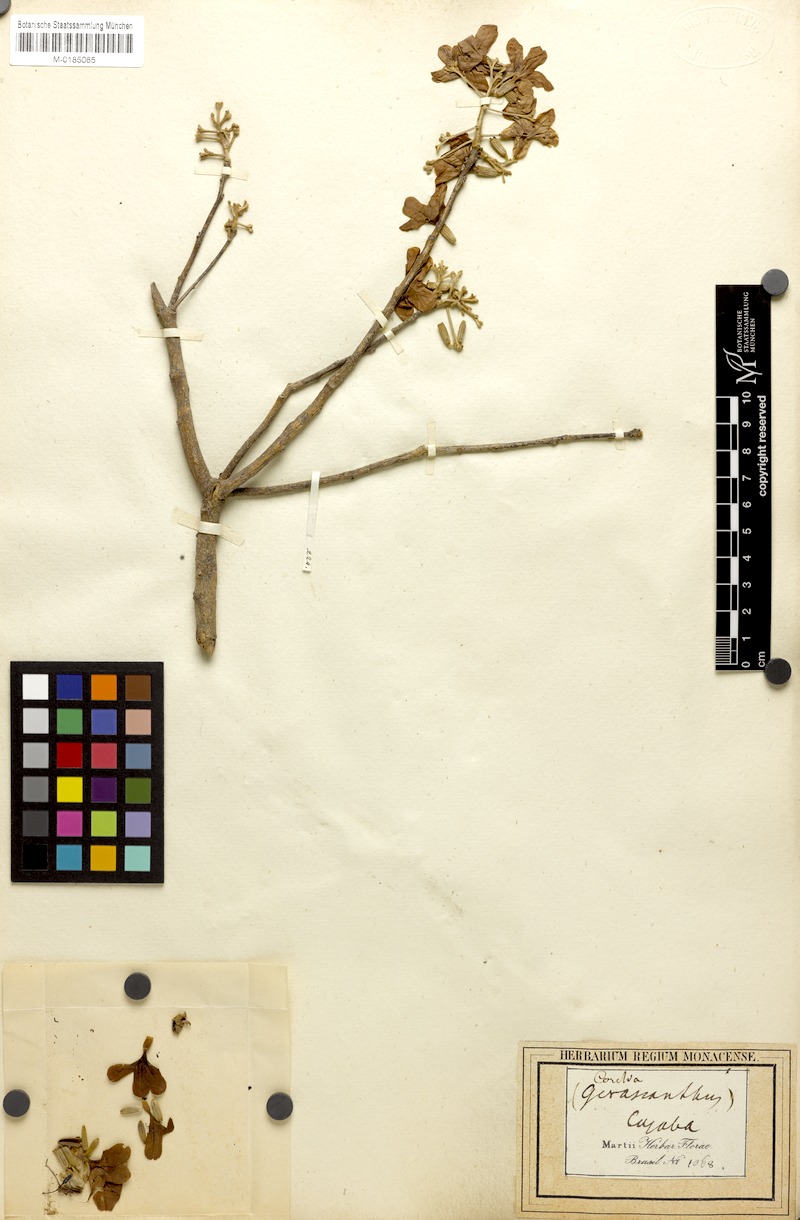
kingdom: Plantae
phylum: Tracheophyta
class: Magnoliopsida
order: Boraginales
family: Cordiaceae
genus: Cordia
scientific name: Cordia glabrata
